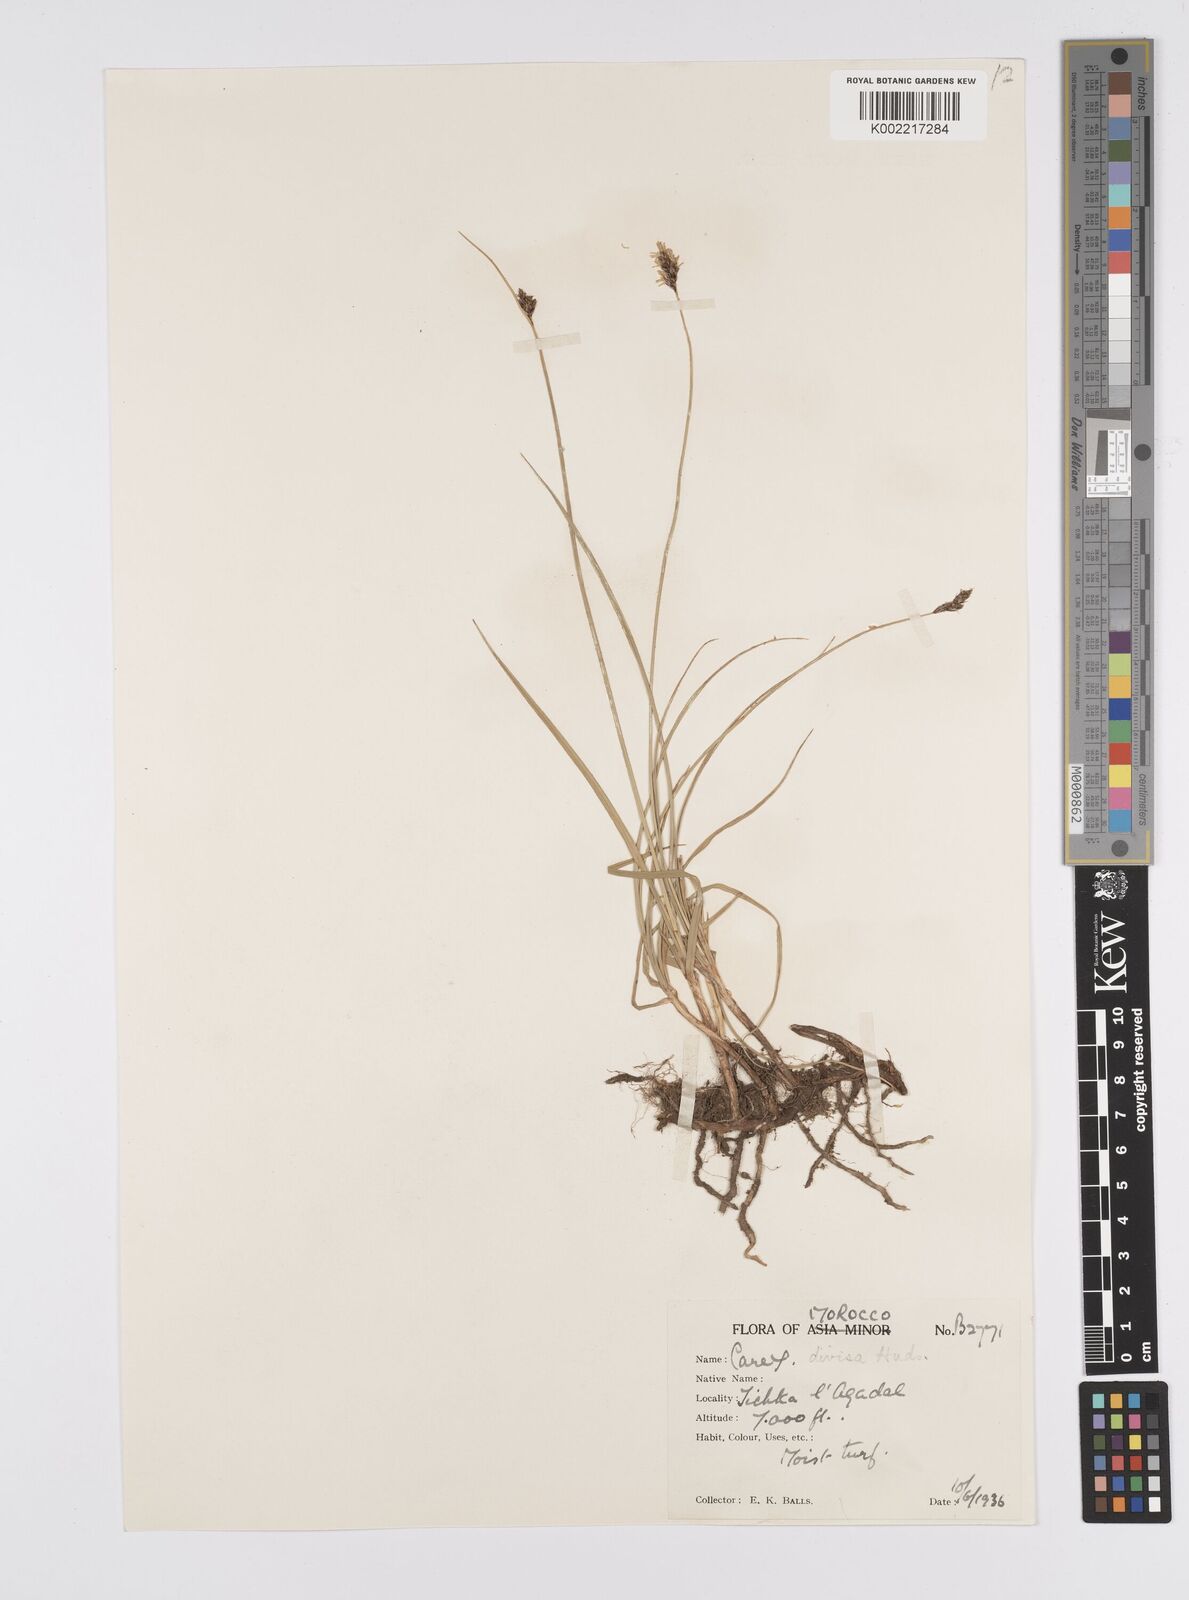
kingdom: Plantae
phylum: Tracheophyta
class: Liliopsida
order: Poales
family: Cyperaceae
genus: Carex
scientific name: Carex divisa
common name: Divided sedge
